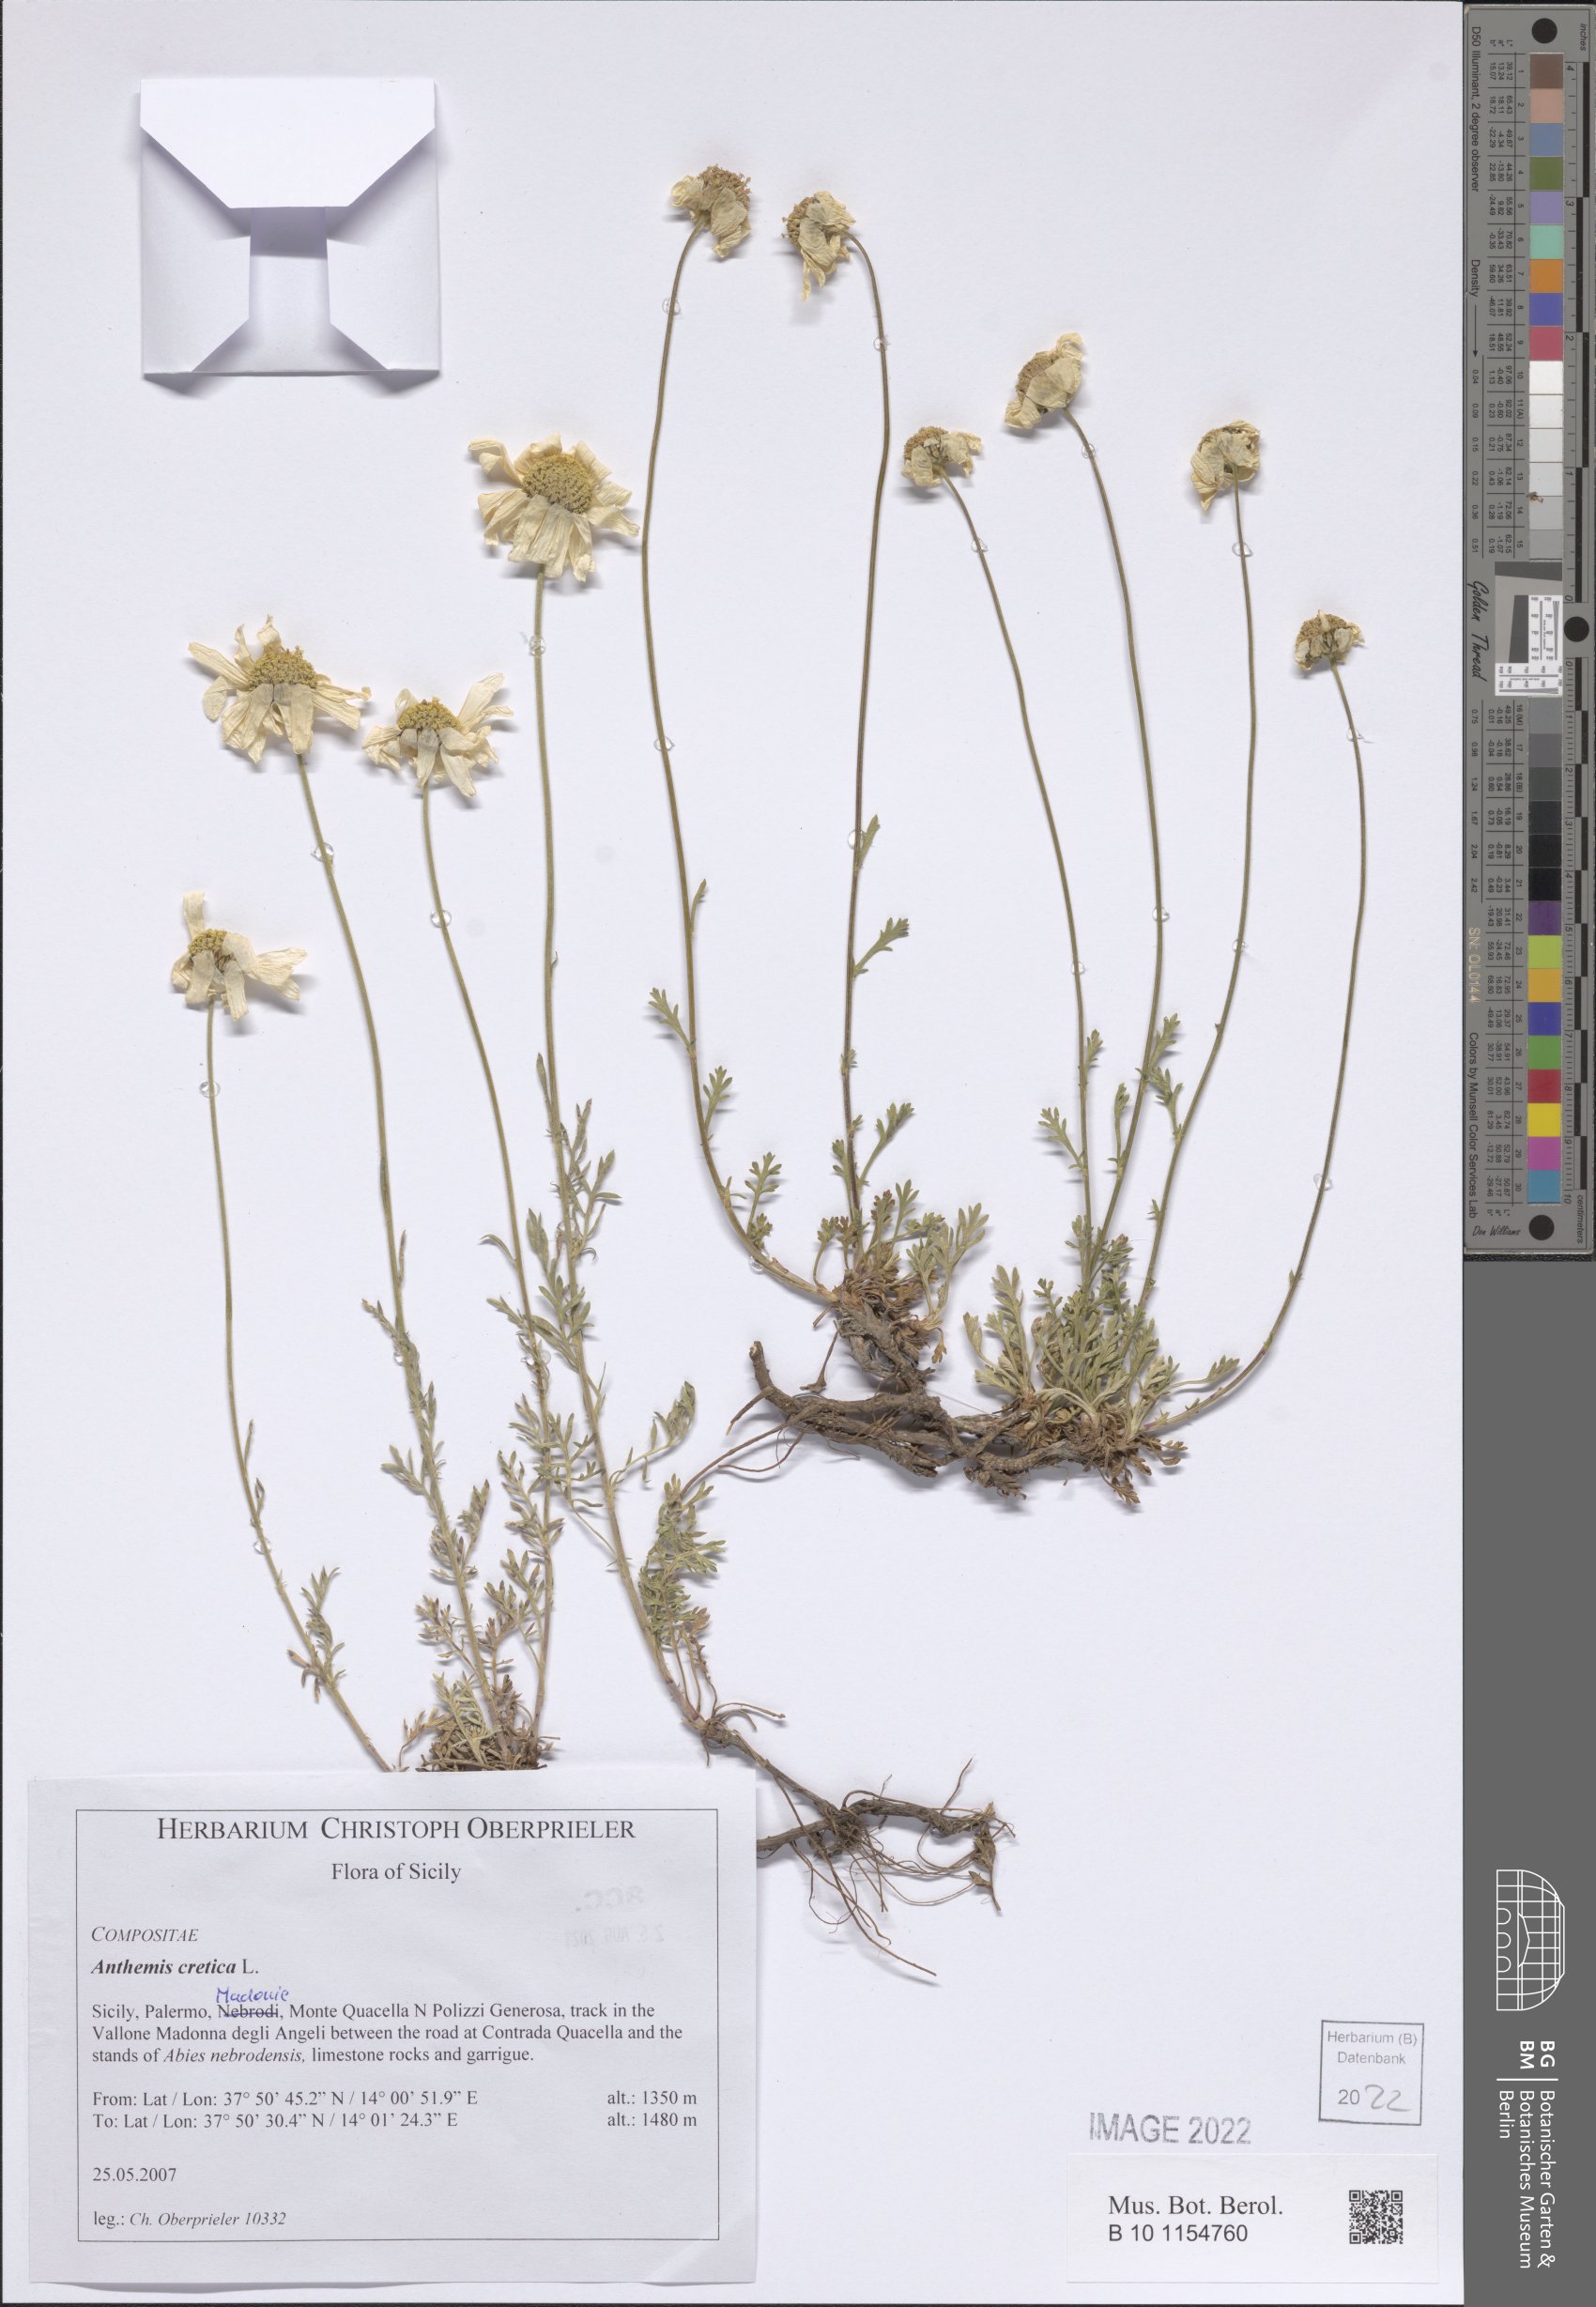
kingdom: Plantae
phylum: Tracheophyta
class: Magnoliopsida
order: Asterales
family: Asteraceae
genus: Anthemis
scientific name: Anthemis cretica
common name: Mountain dog-daisy
